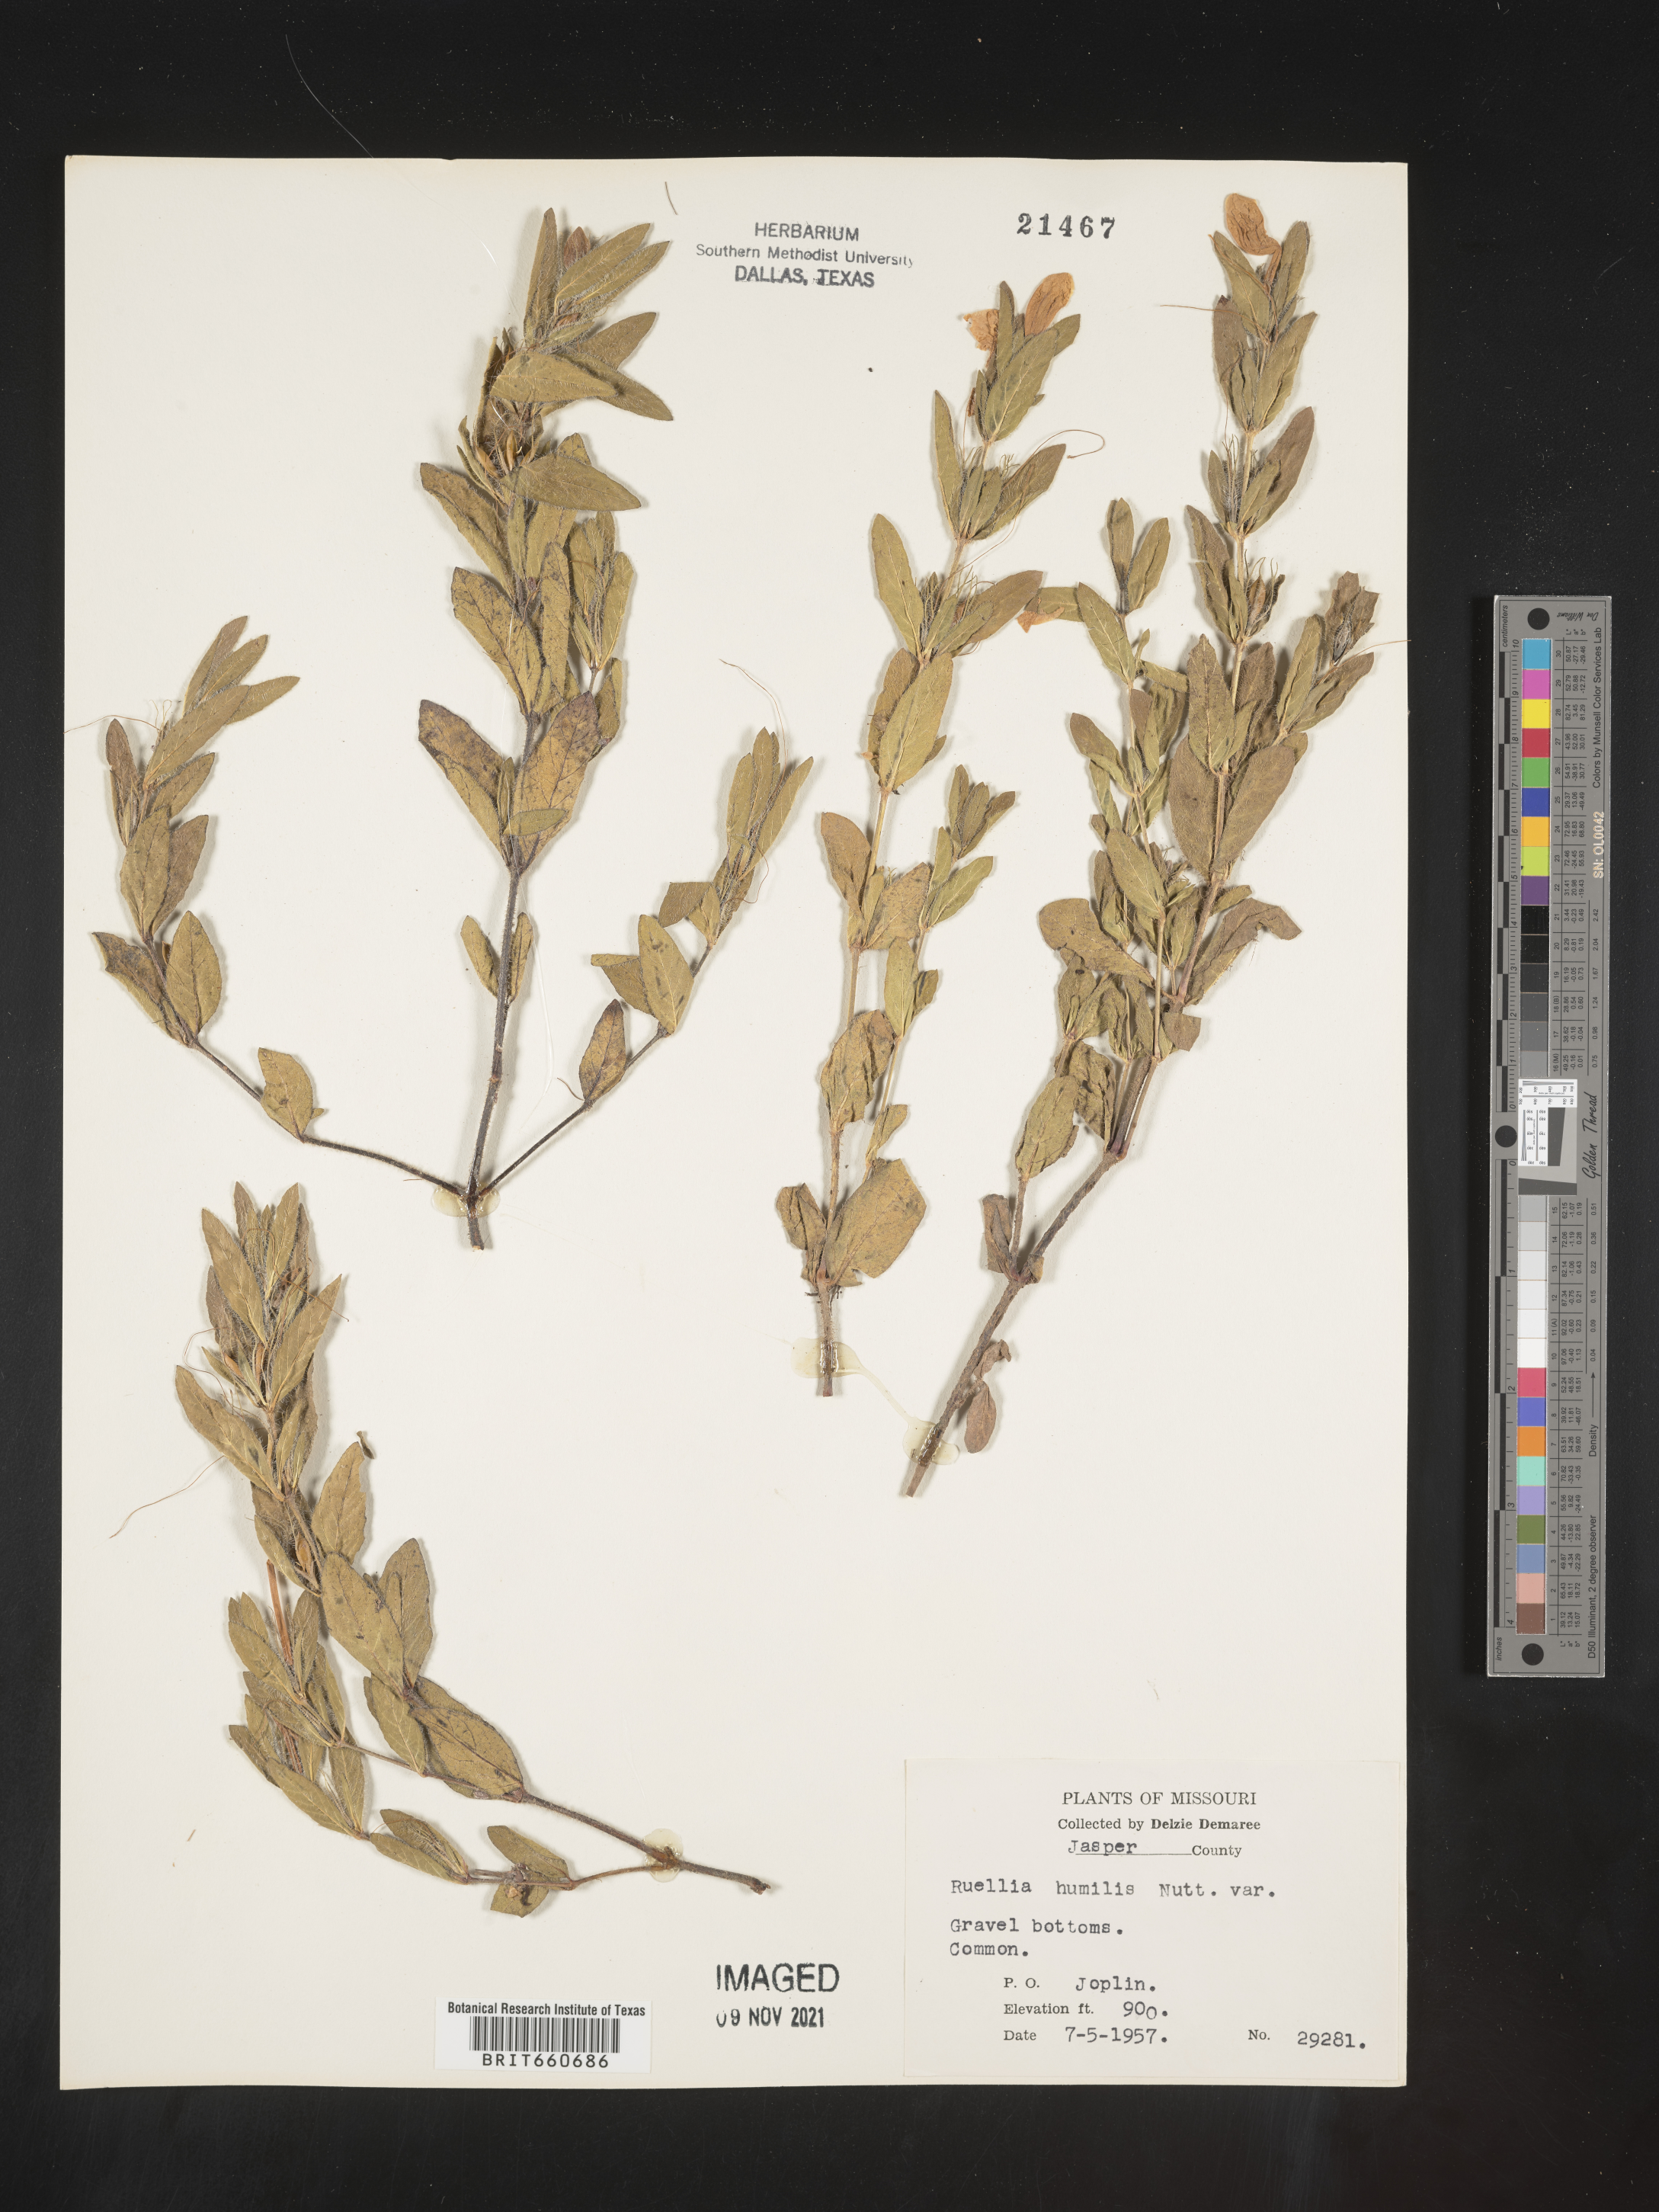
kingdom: Plantae
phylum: Tracheophyta
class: Magnoliopsida
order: Lamiales
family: Acanthaceae
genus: Ruellia
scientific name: Ruellia humilis
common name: Fringe-leaf ruellia
